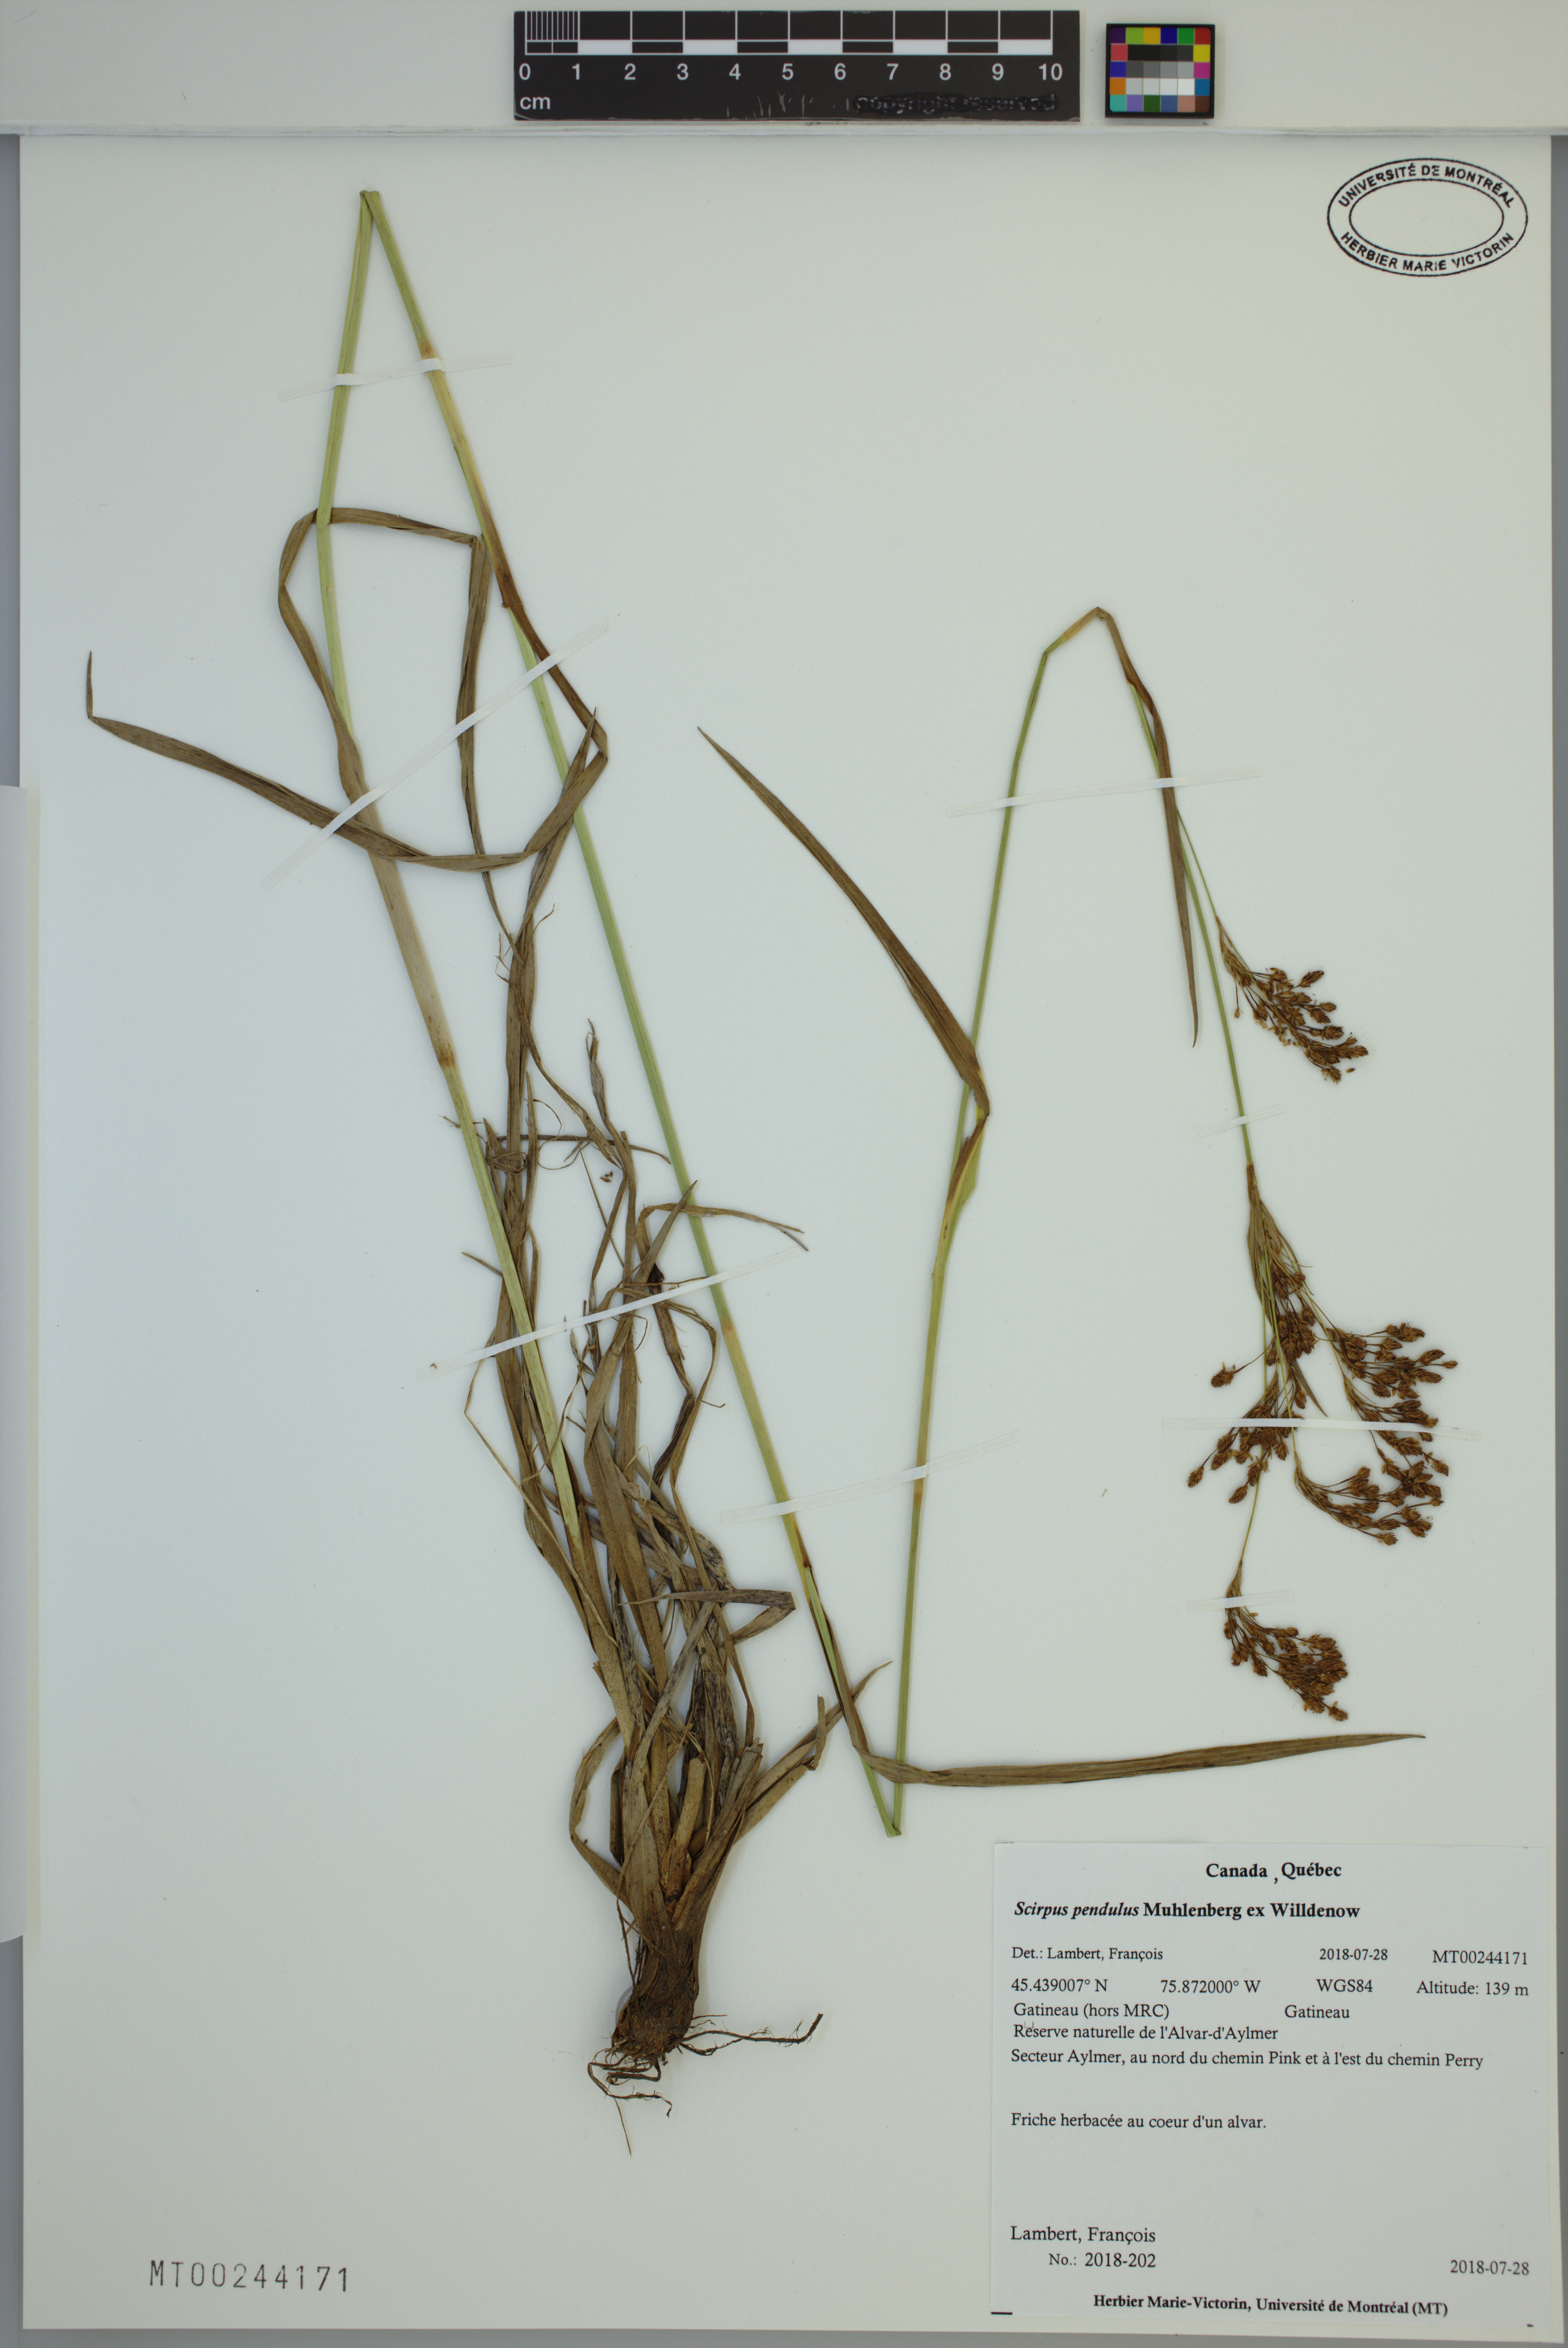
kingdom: Plantae
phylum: Tracheophyta
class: Liliopsida
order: Poales
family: Cyperaceae
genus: Scirpus
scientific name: Scirpus pendulus
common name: Nodding bulrush
